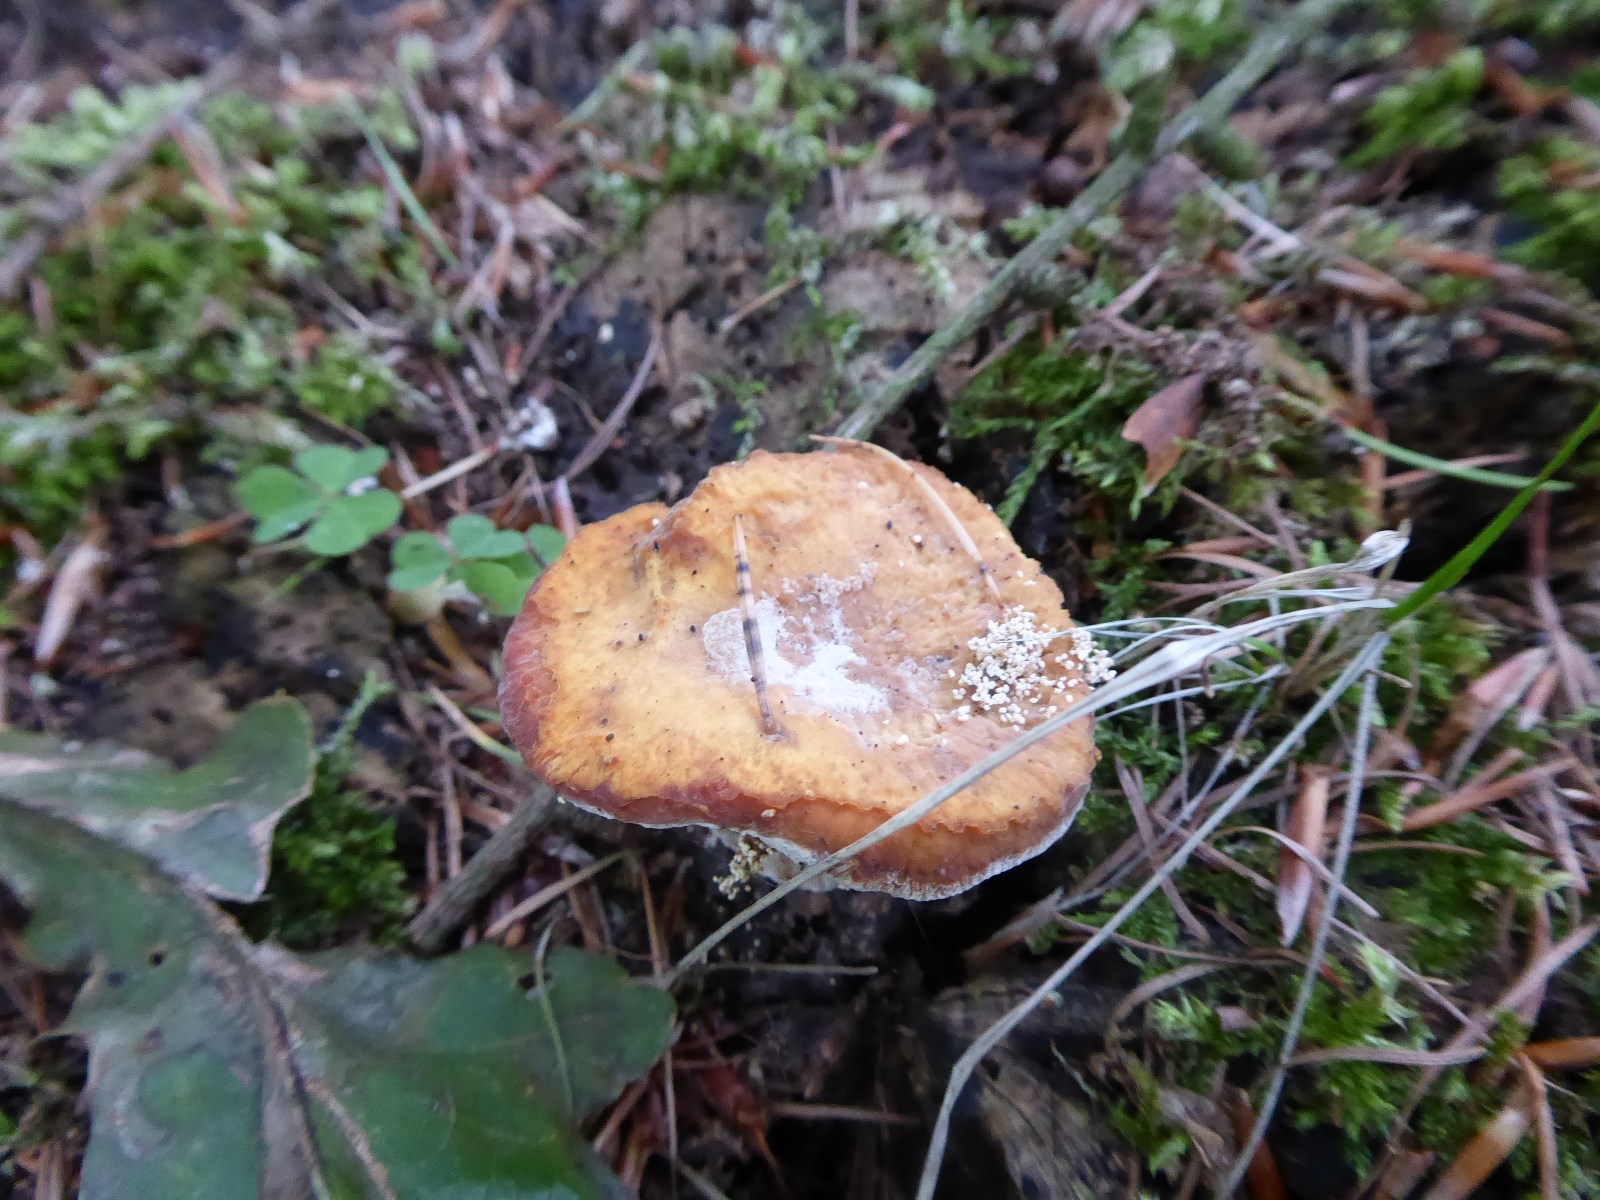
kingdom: Fungi
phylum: Basidiomycota
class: Agaricomycetes
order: Polyporales
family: Polyporaceae
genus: Cerioporus
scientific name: Cerioporus varius
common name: foranderlig stilkporesvamp
